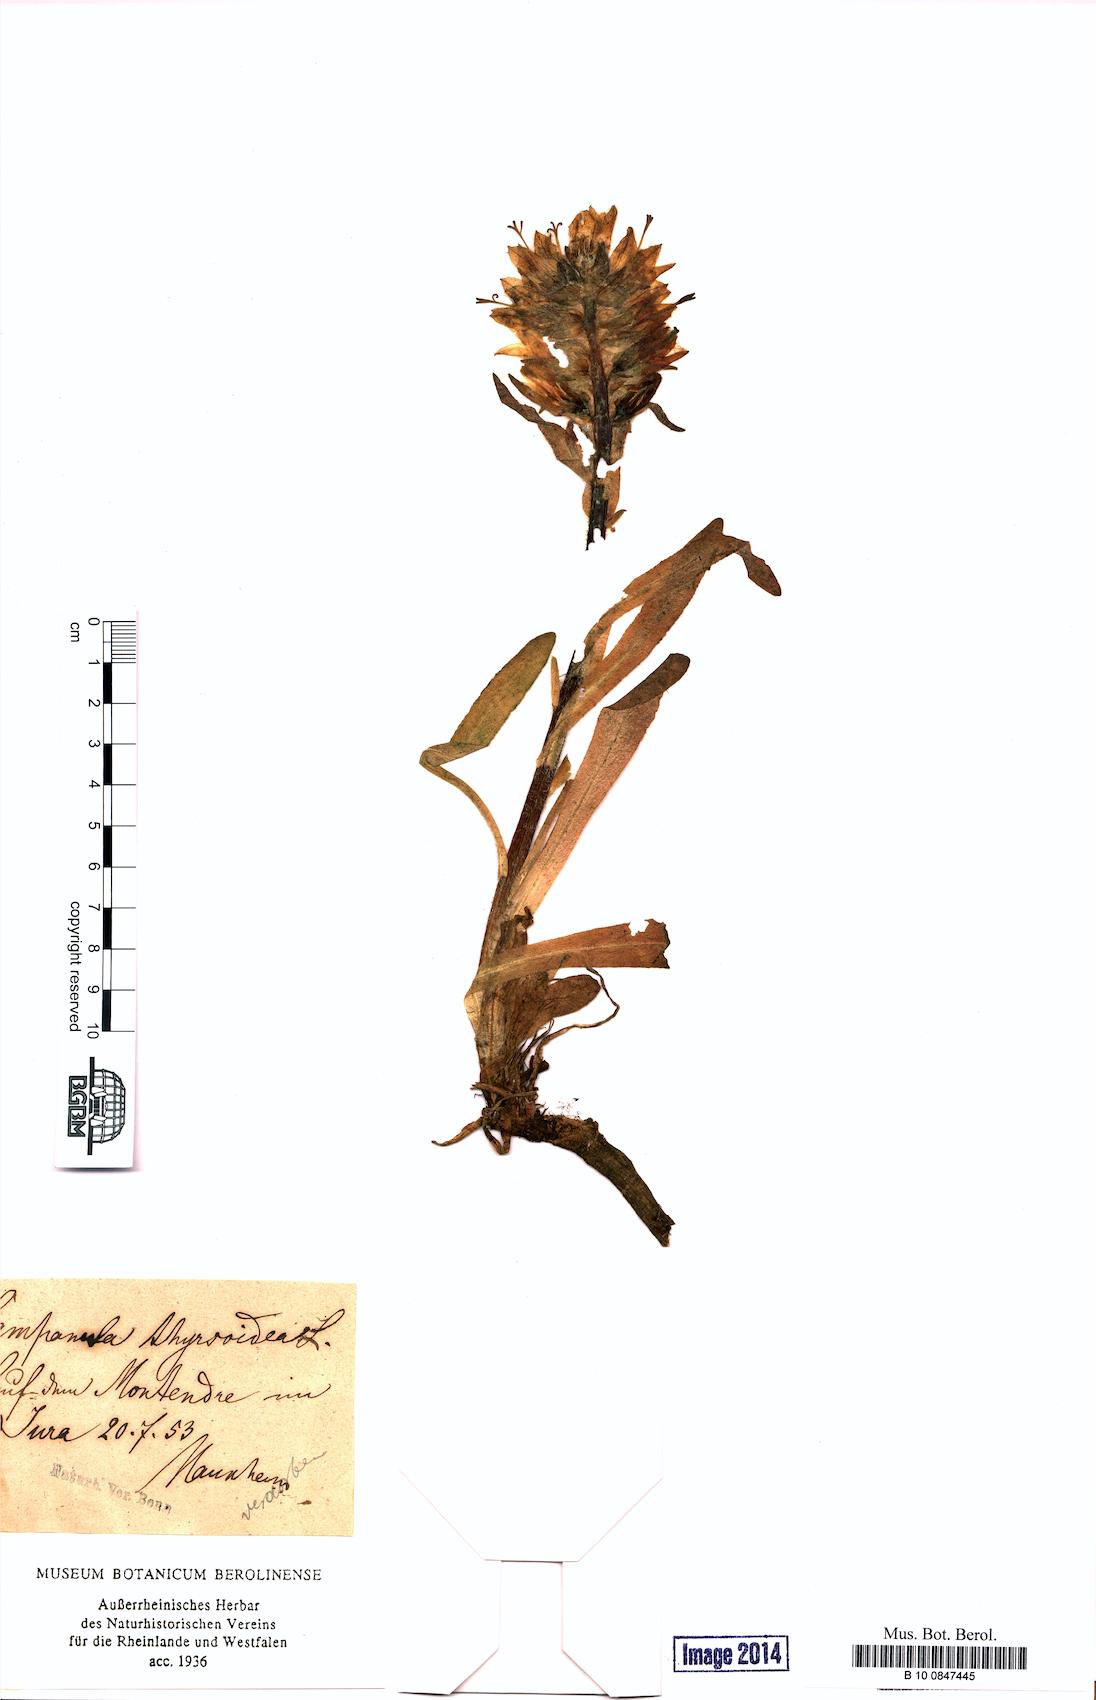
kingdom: Plantae
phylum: Tracheophyta
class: Magnoliopsida
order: Asterales
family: Campanulaceae
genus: Campanula
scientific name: Campanula thyrsoides
